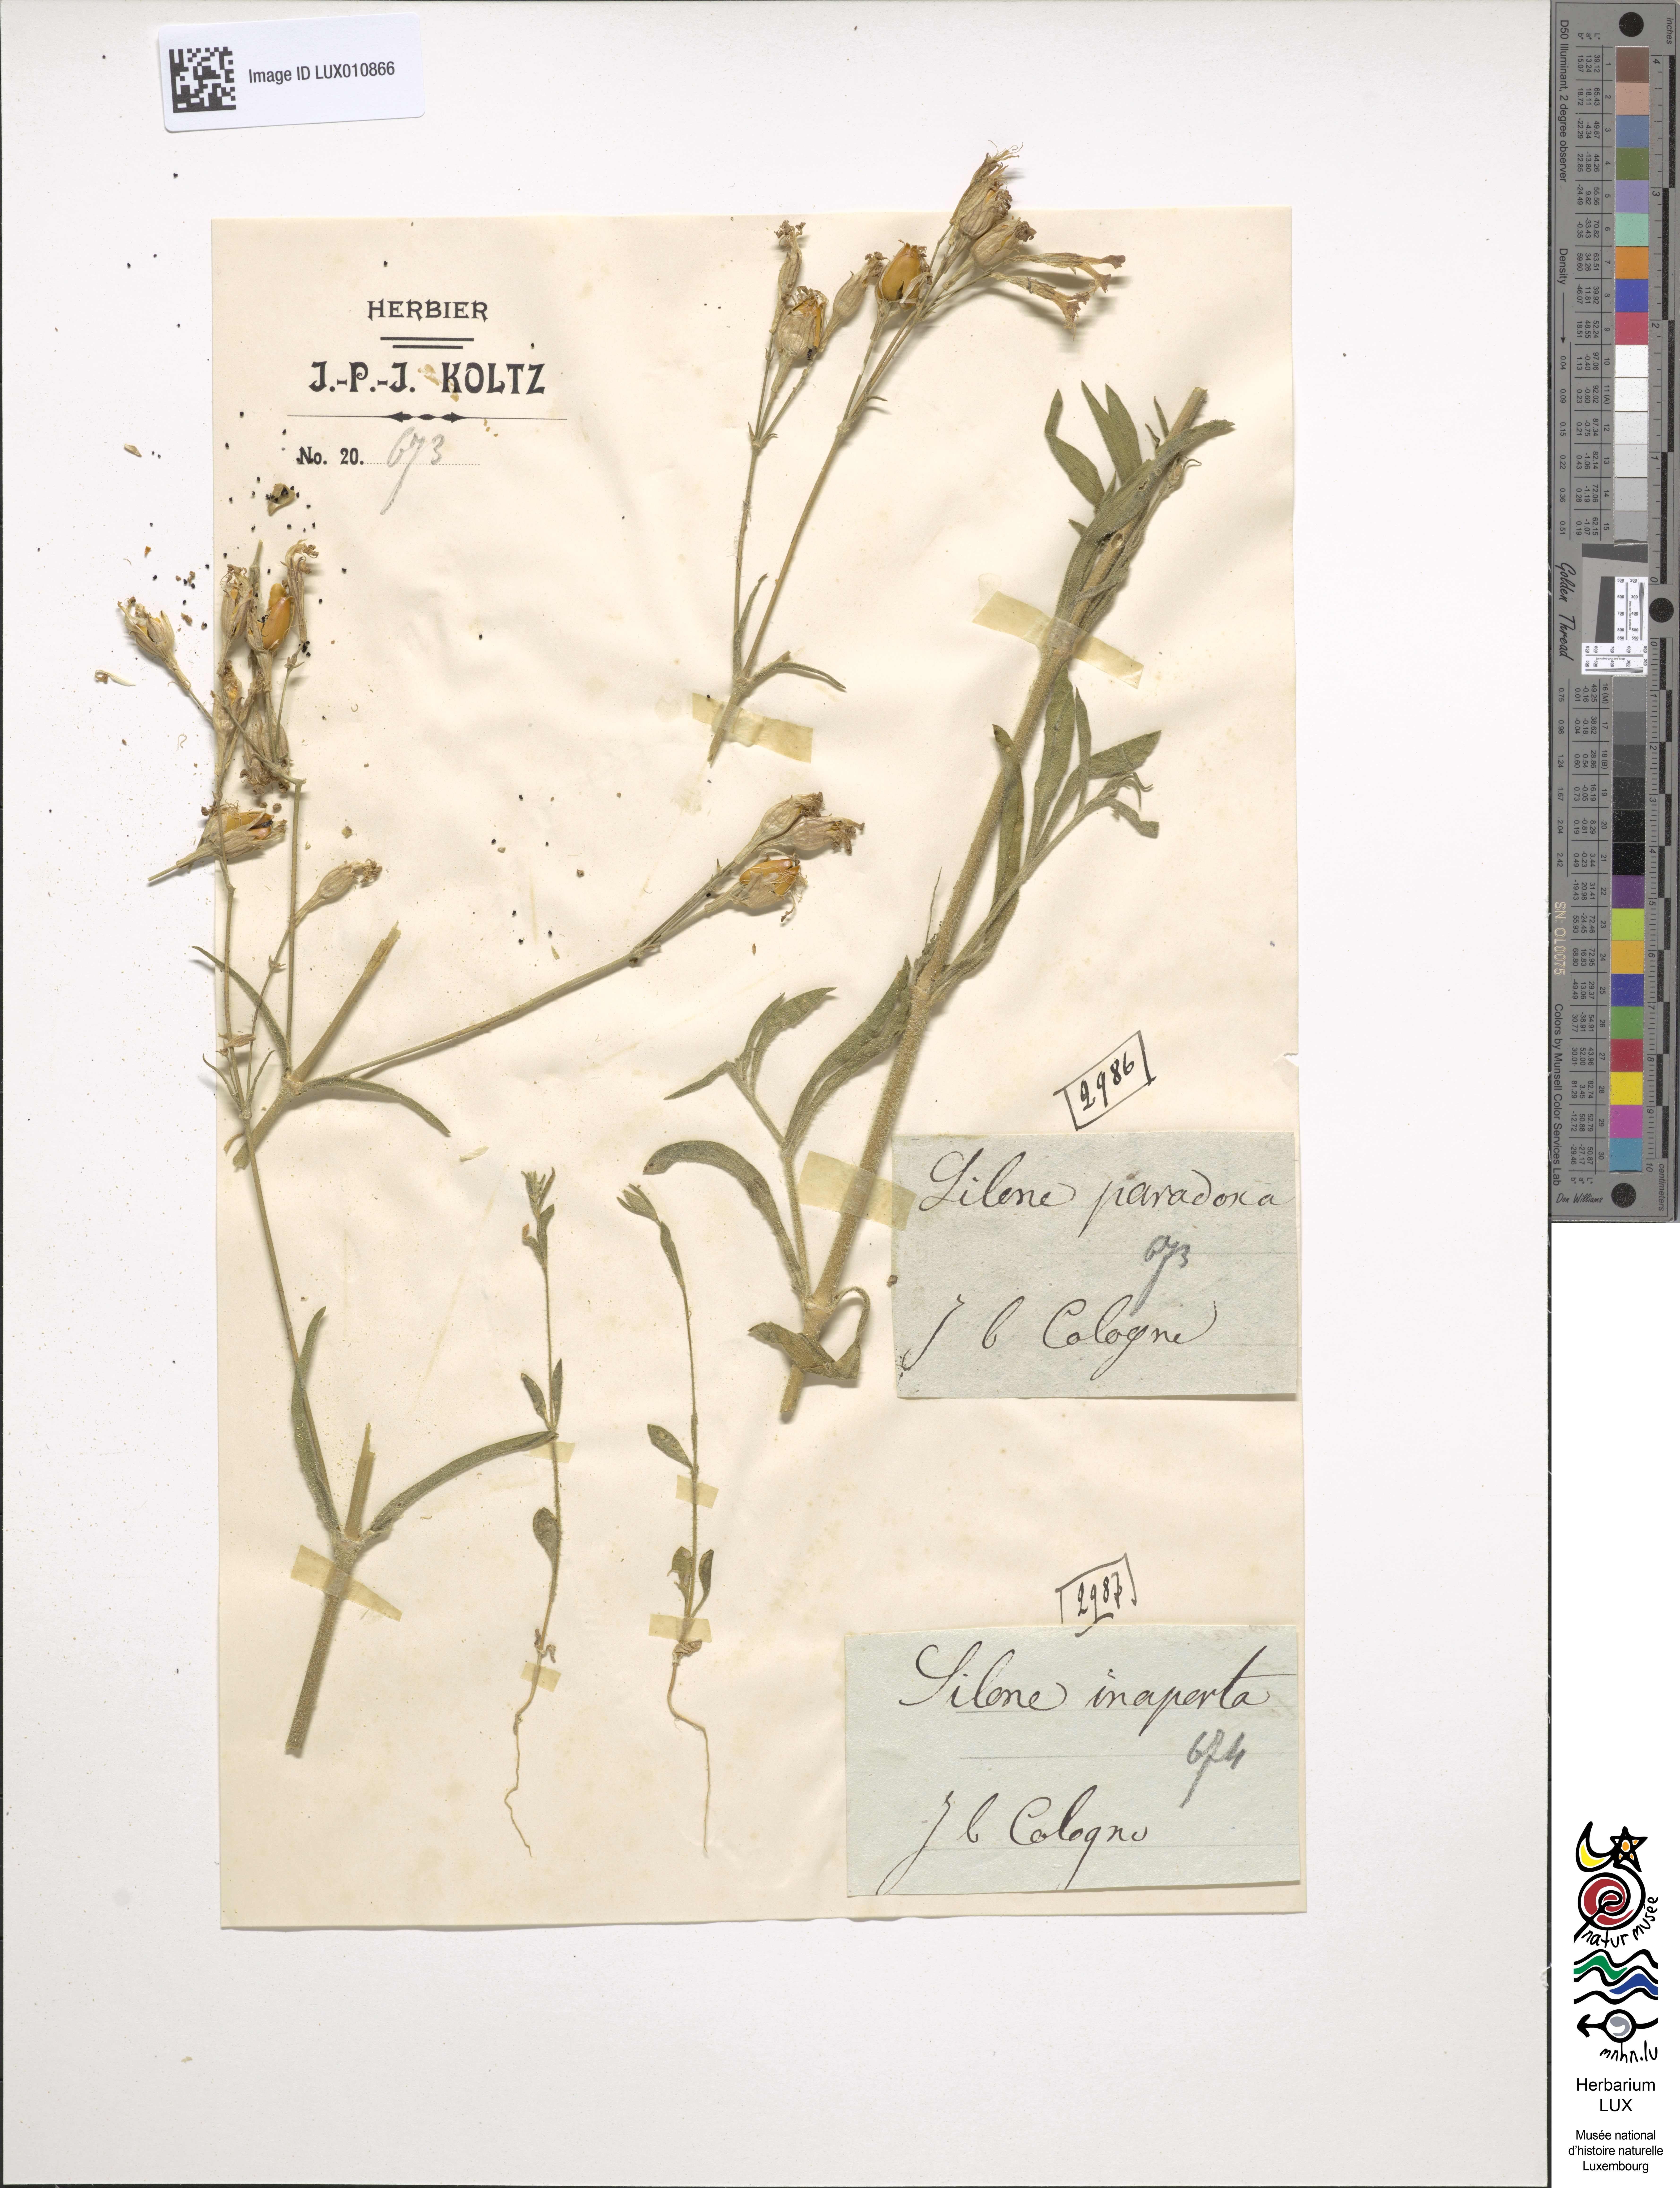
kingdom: Plantae
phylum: Tracheophyta
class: Magnoliopsida
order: Caryophyllales
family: Caryophyllaceae
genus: Silene
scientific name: Silene paradoxa
